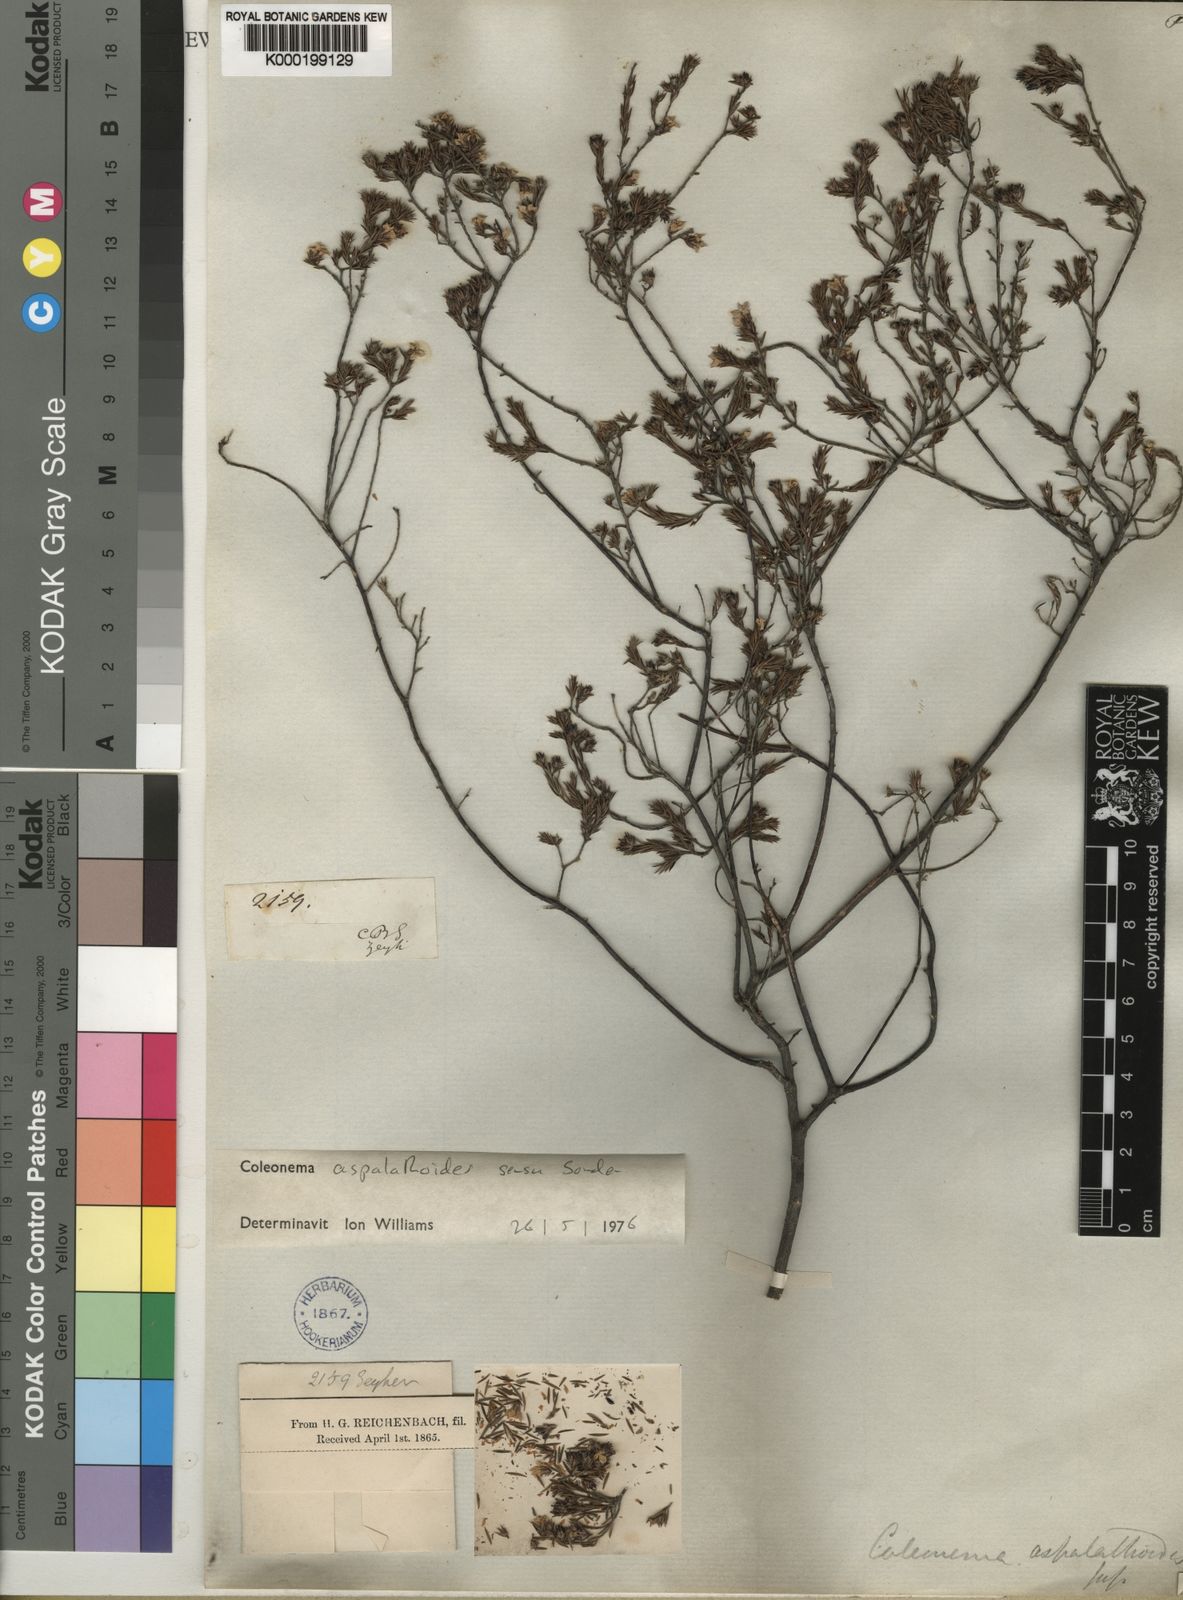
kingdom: Plantae
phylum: Tracheophyta
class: Magnoliopsida
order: Sapindales
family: Rutaceae
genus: Coleonema
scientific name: Coleonema aspalathoides
